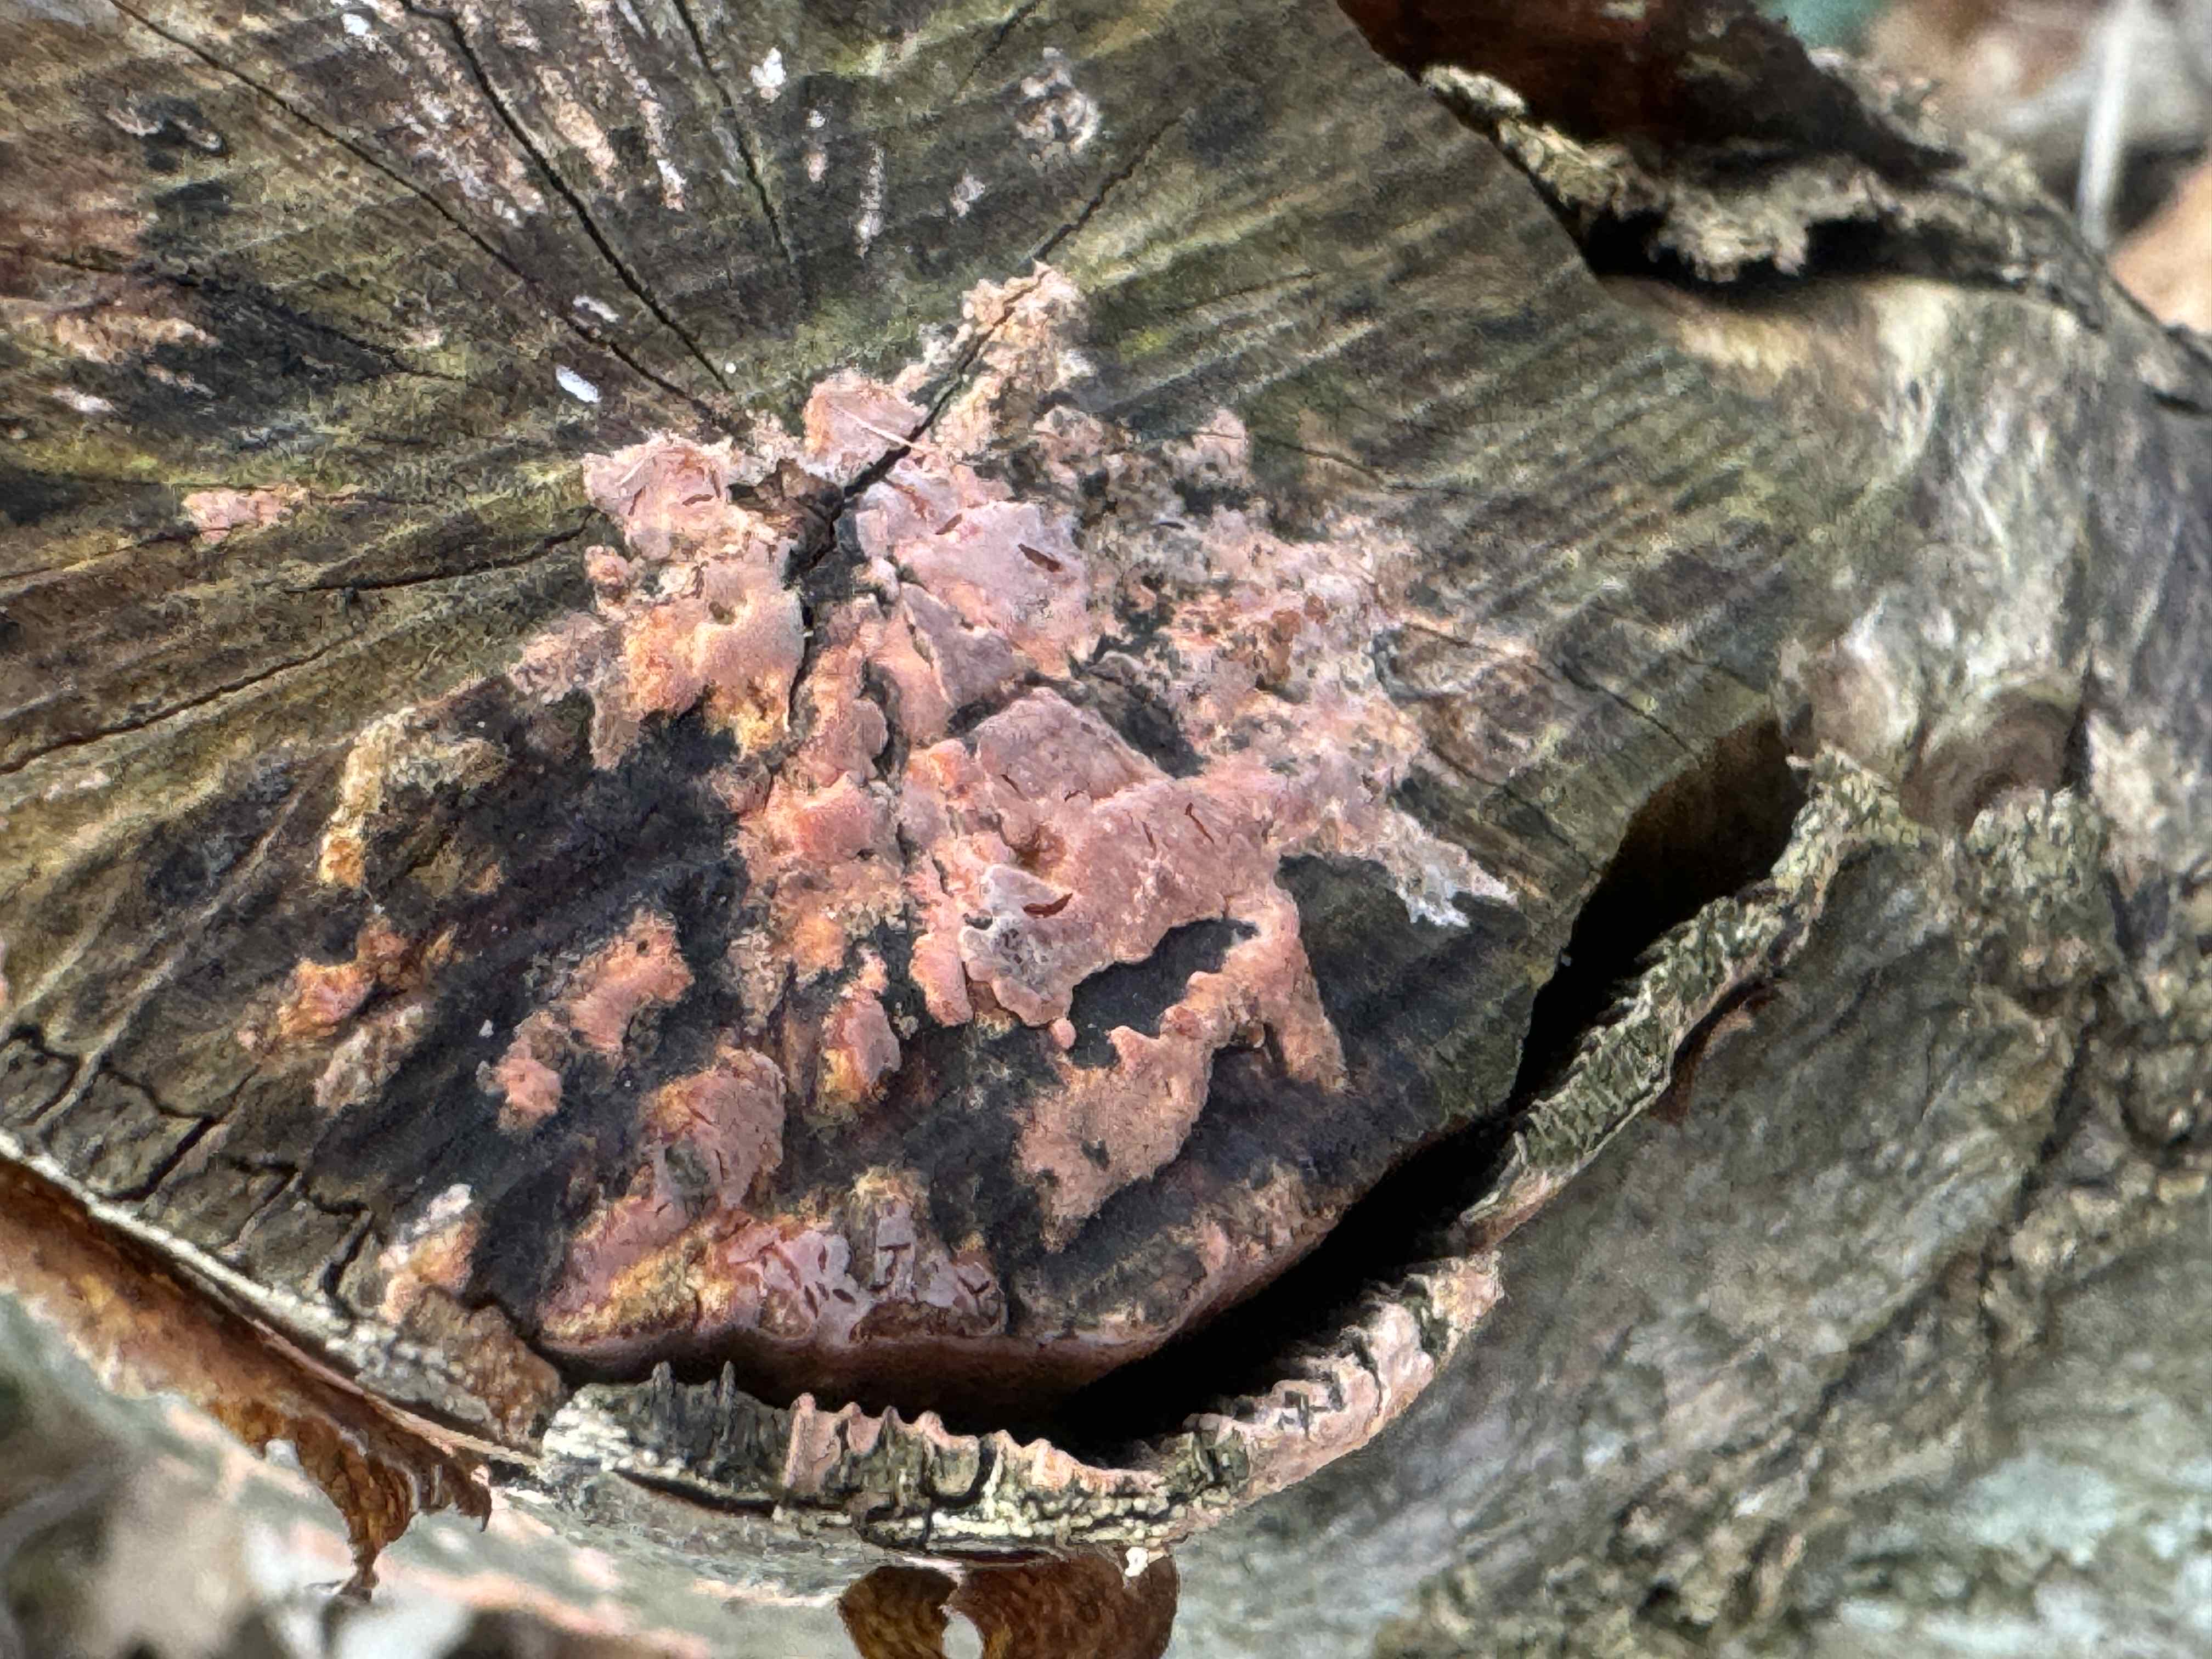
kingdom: Fungi
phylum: Basidiomycota
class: Agaricomycetes
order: Russulales
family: Peniophoraceae
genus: Peniophora
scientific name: Peniophora incarnata
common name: laksefarvet voksskind
